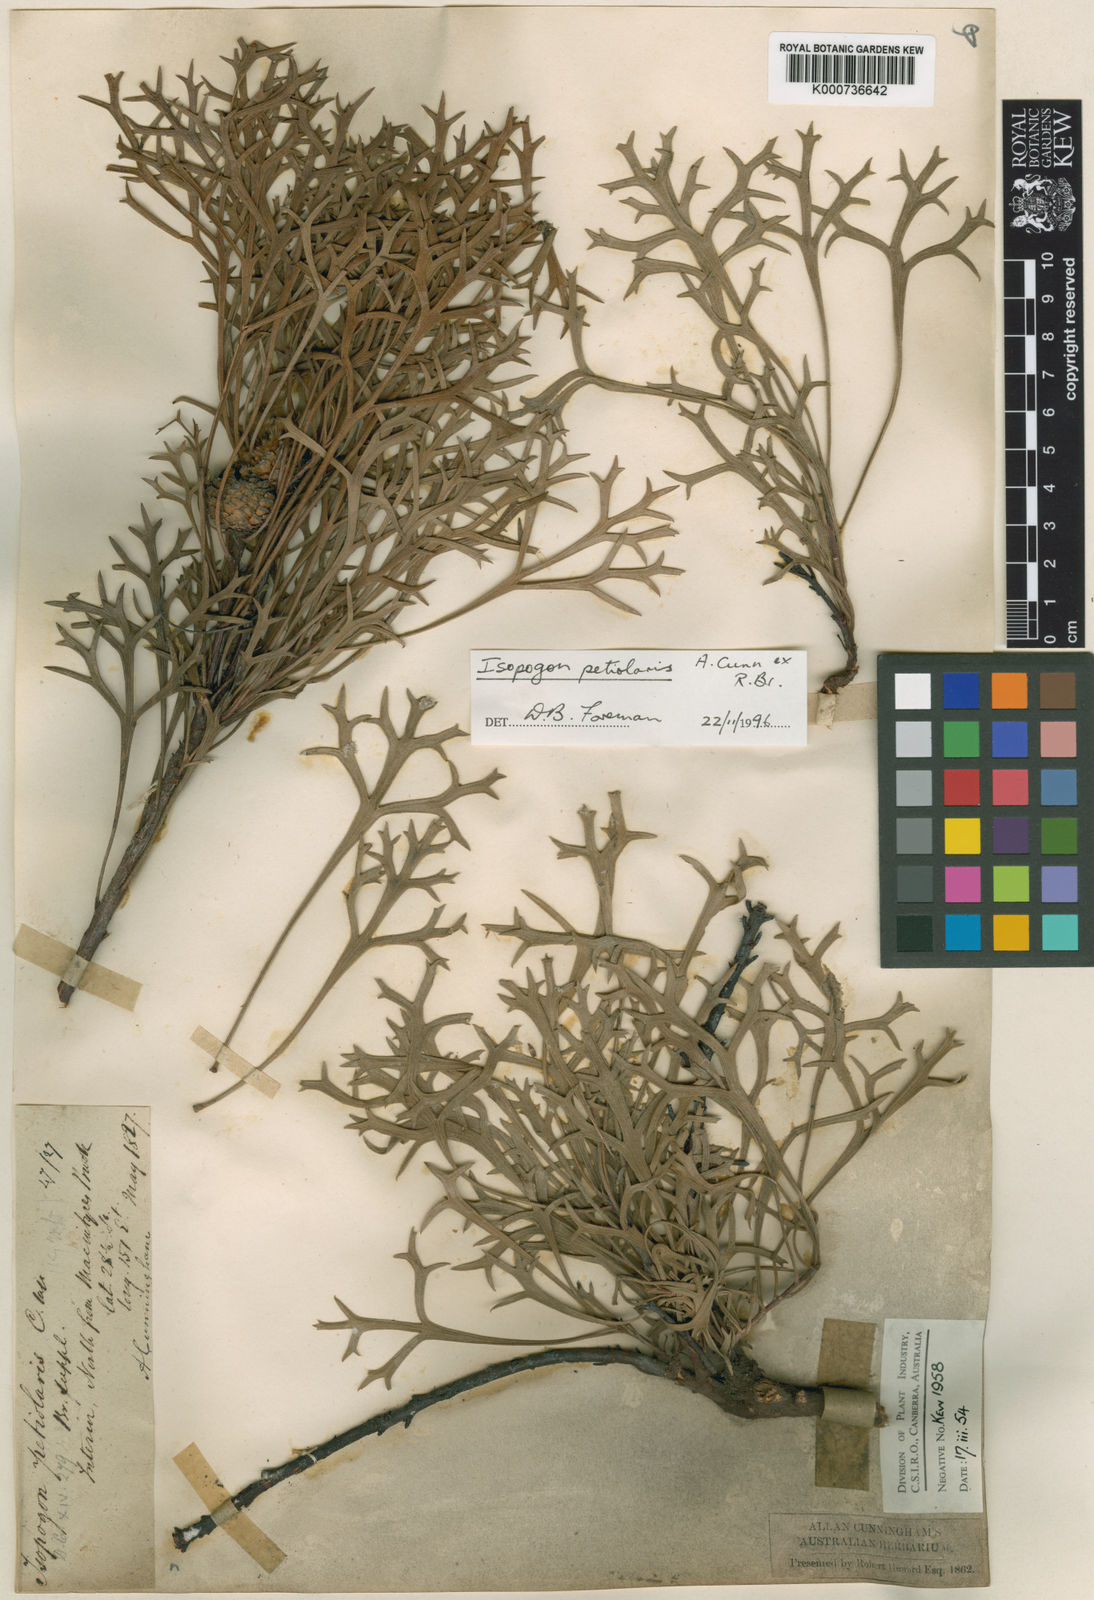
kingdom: Plantae
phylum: Tracheophyta
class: Magnoliopsida
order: Proteales
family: Proteaceae
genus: Isopogon
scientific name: Isopogon petiolaris
